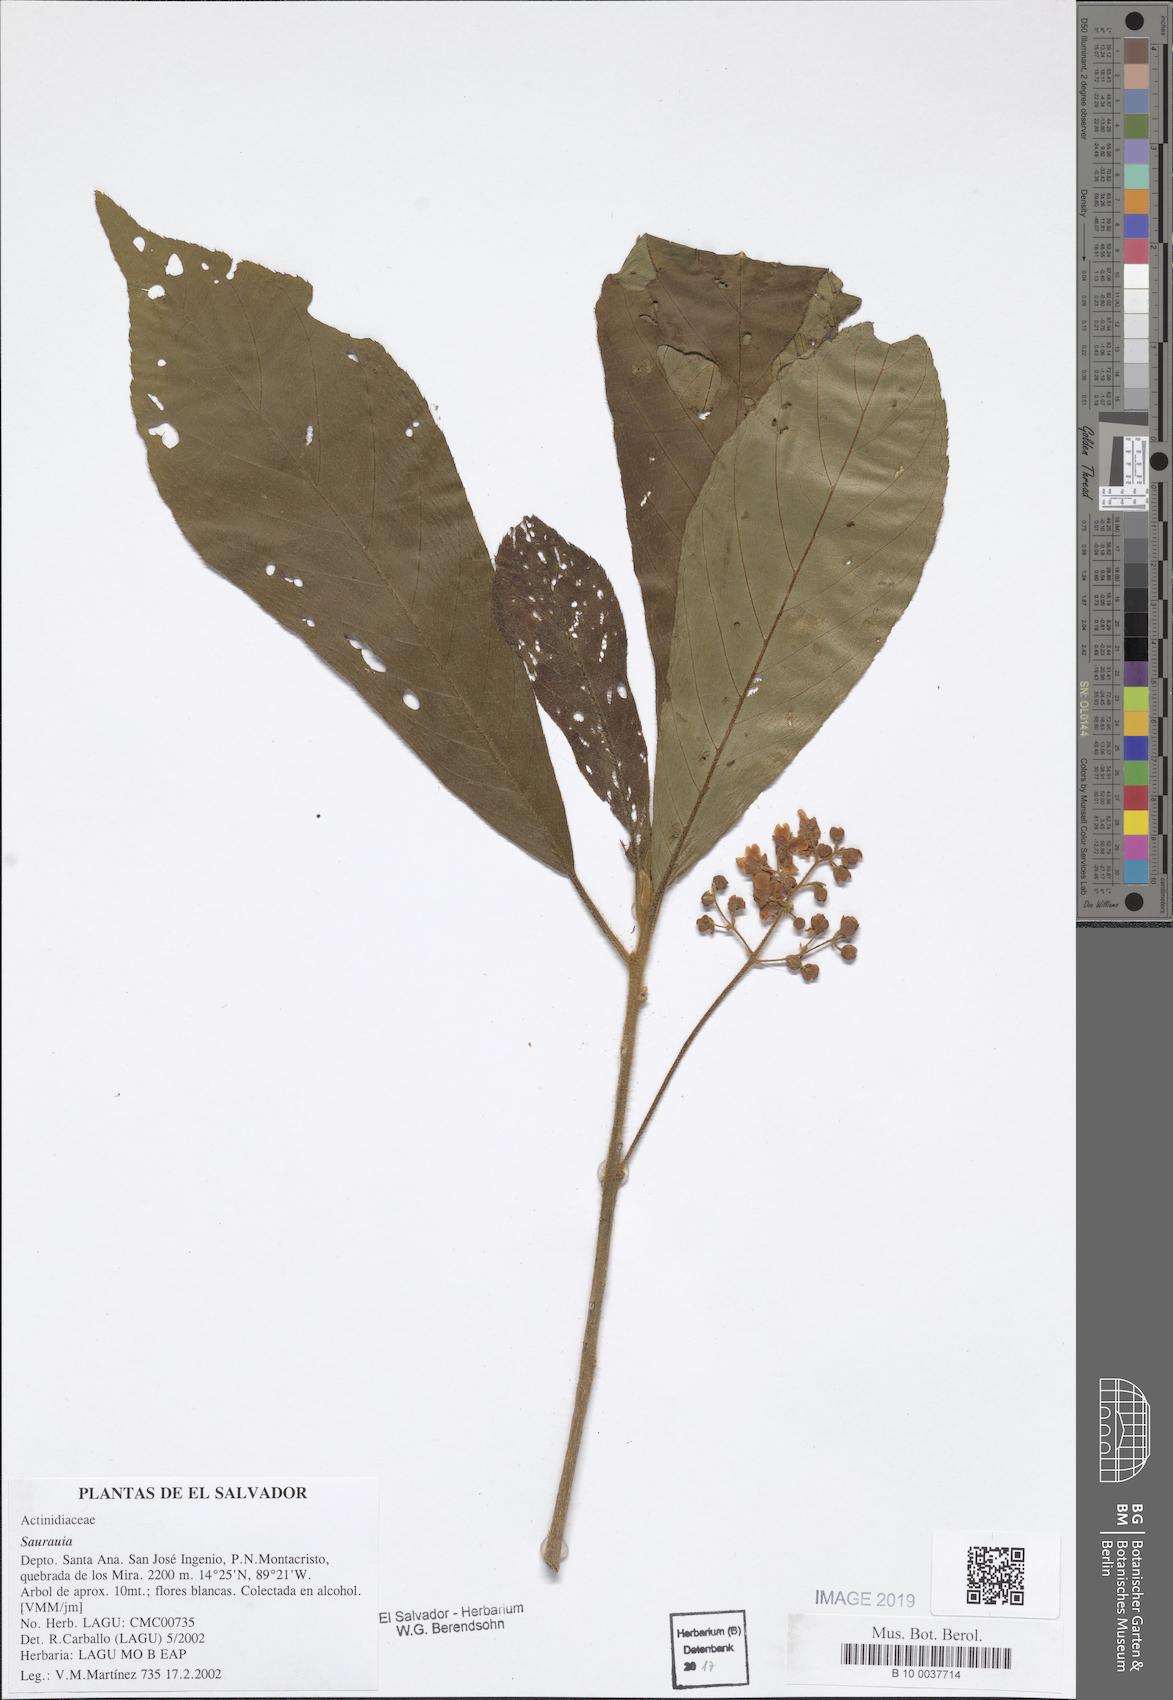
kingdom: Plantae
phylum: Tracheophyta
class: Magnoliopsida
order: Ericales
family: Actinidiaceae
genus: Saurauia
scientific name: Saurauia
